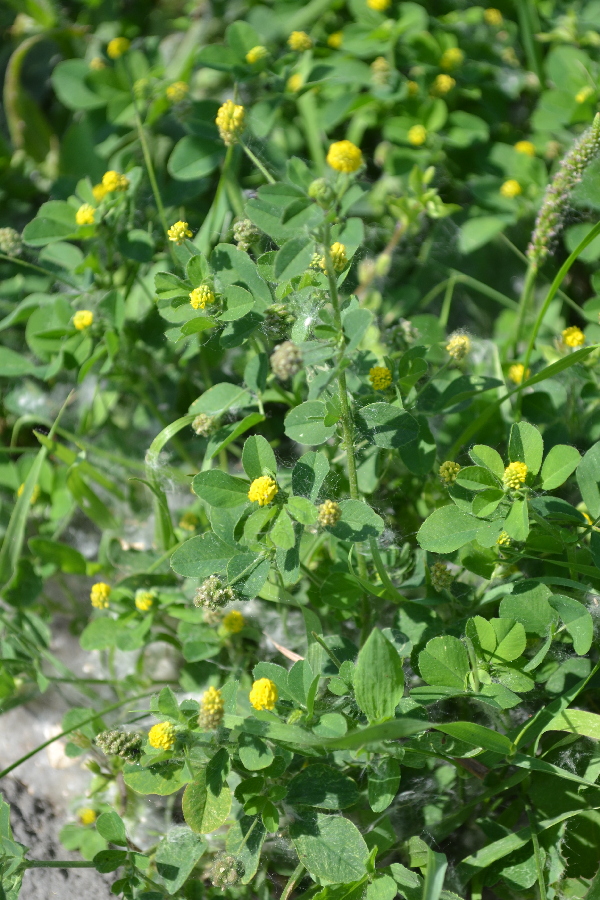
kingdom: Plantae
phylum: Tracheophyta
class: Magnoliopsida
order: Fabales
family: Fabaceae
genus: Trifolium
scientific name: Trifolium aureum
